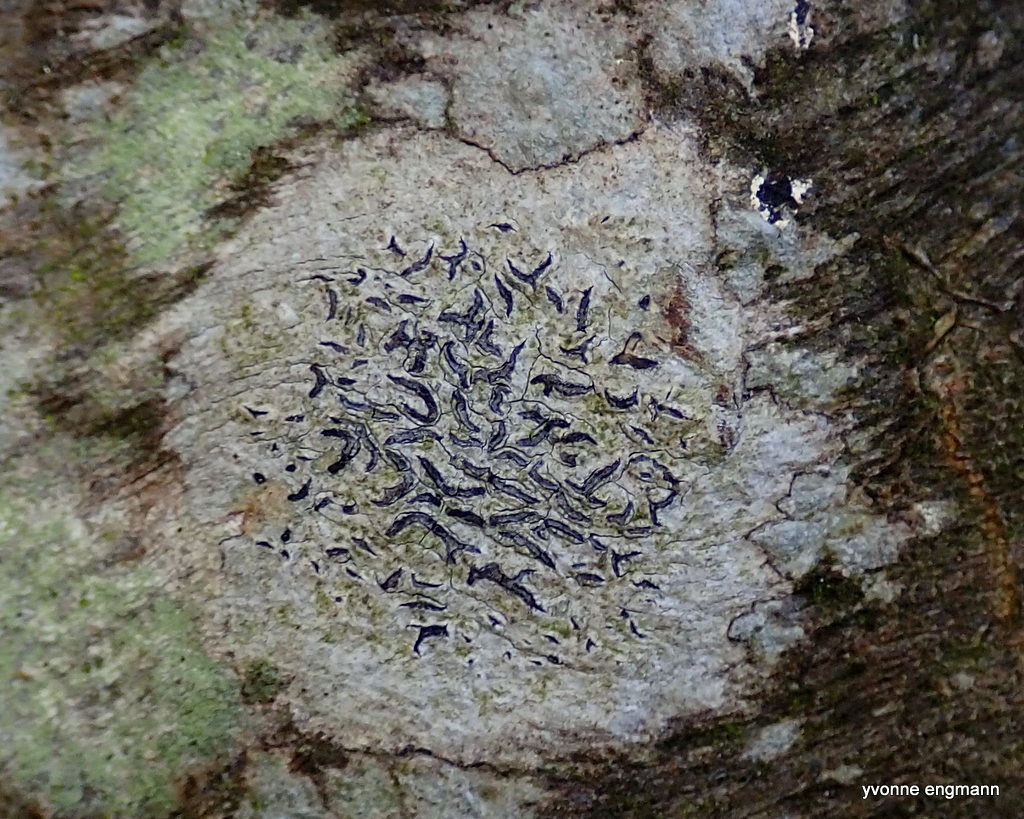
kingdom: Fungi
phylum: Ascomycota
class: Lecanoromycetes
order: Ostropales
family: Graphidaceae
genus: Graphis
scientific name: Graphis scripta
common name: almindelig skriftlav
